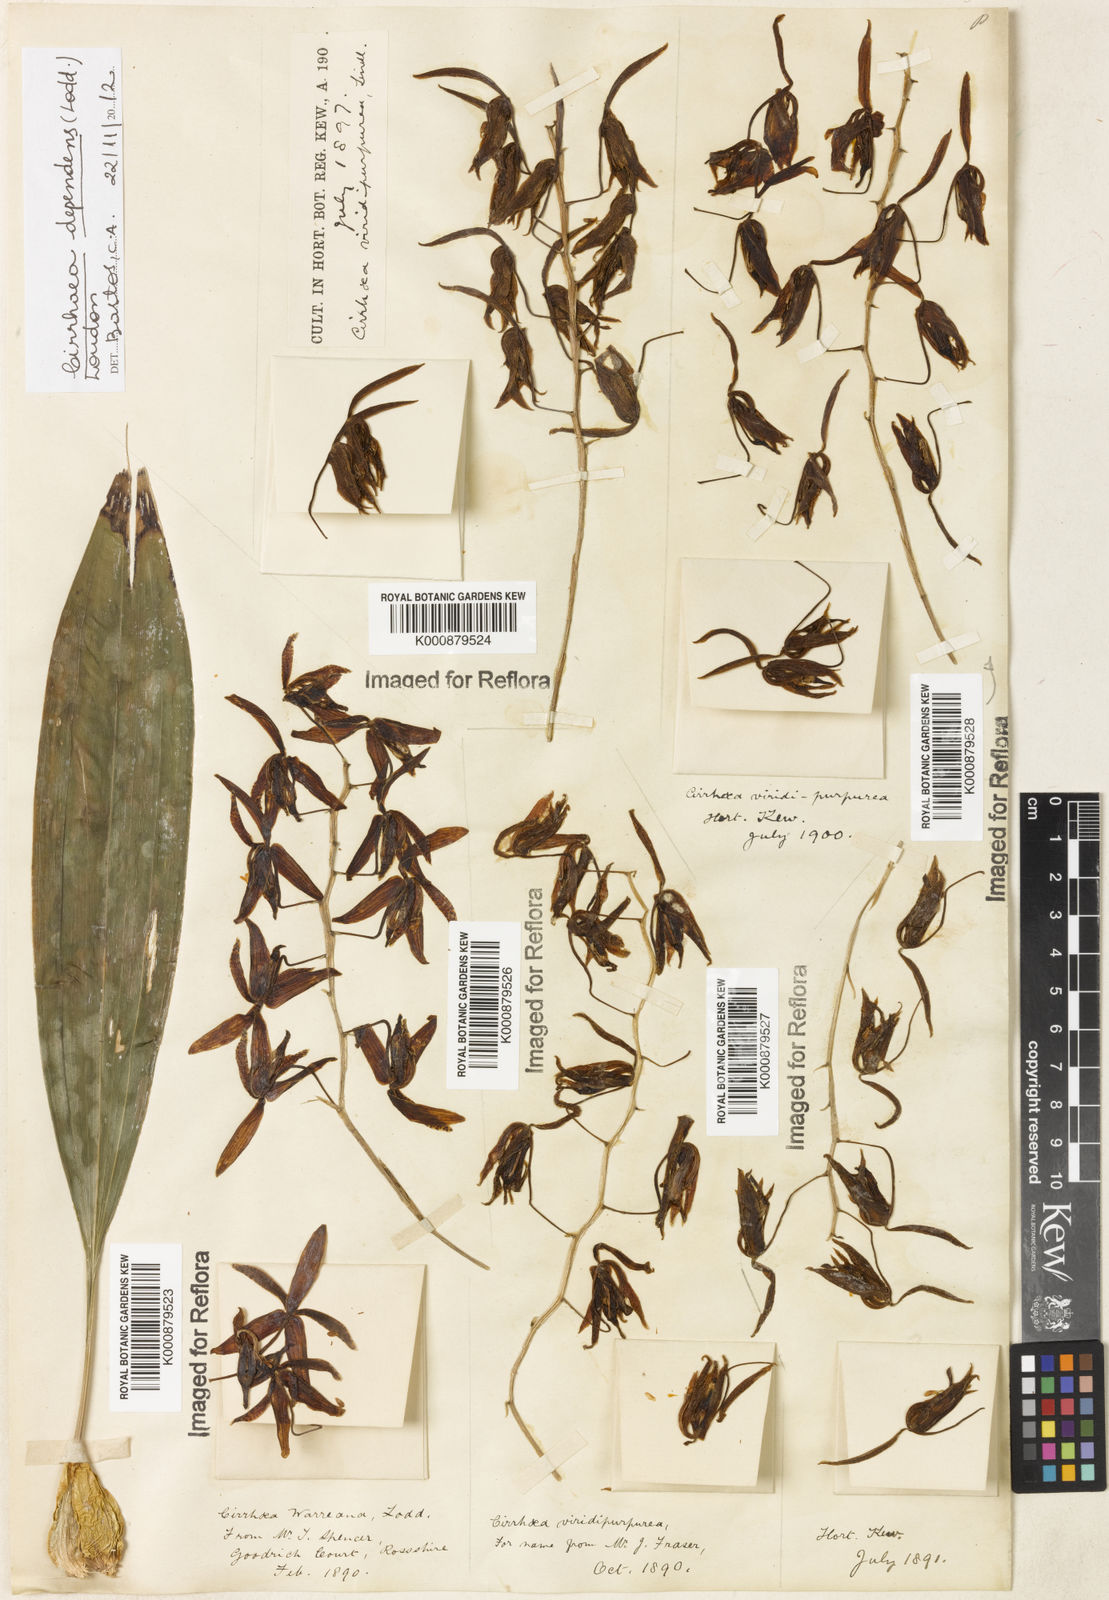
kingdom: Plantae
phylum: Tracheophyta
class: Liliopsida
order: Asparagales
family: Orchidaceae
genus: Cirrhaea
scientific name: Cirrhaea
